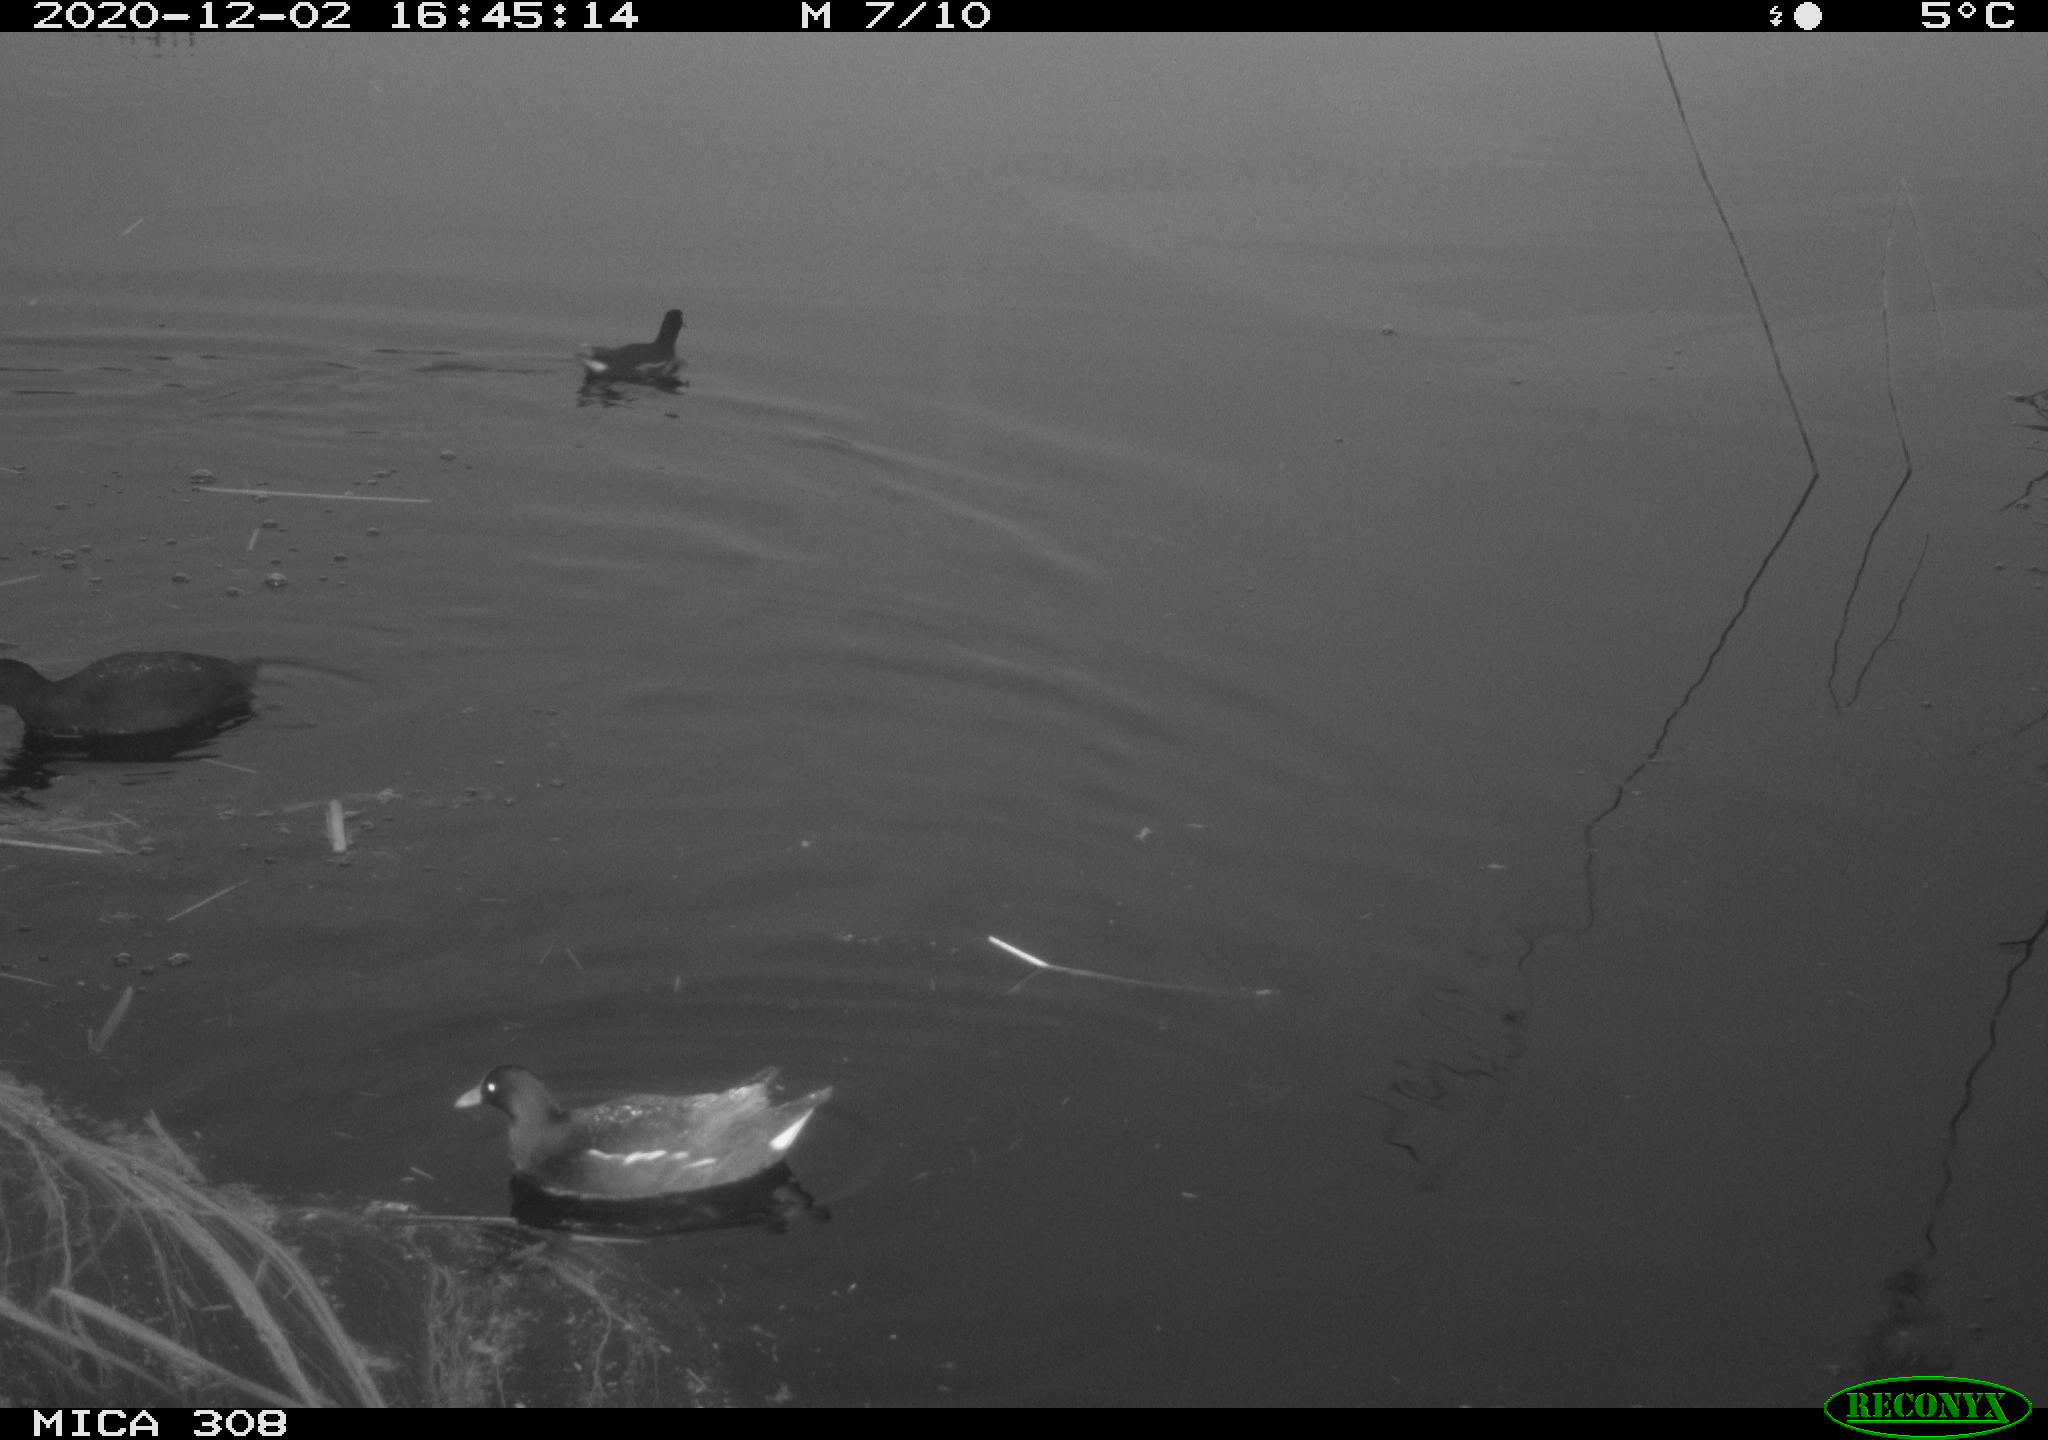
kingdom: Animalia
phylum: Chordata
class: Aves
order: Gruiformes
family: Rallidae
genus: Gallinula
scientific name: Gallinula chloropus
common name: Common moorhen
